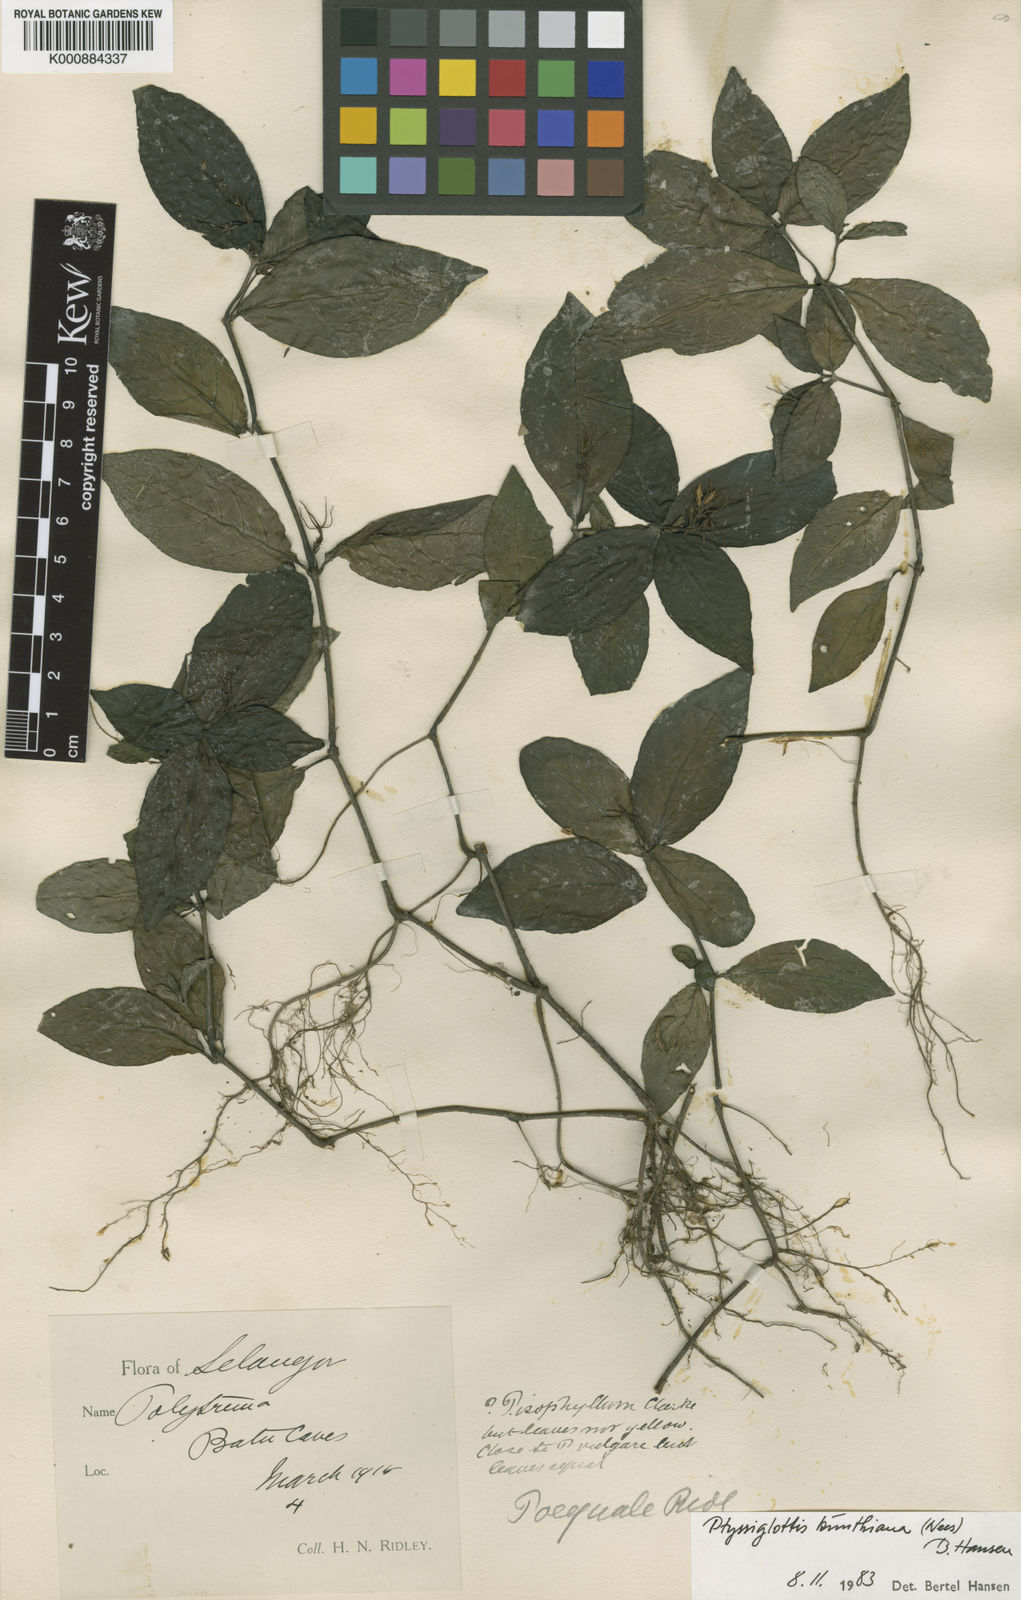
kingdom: Plantae
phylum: Tracheophyta
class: Magnoliopsida
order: Lamiales
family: Acanthaceae
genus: Ptyssiglottis
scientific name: Ptyssiglottis kunthiana
